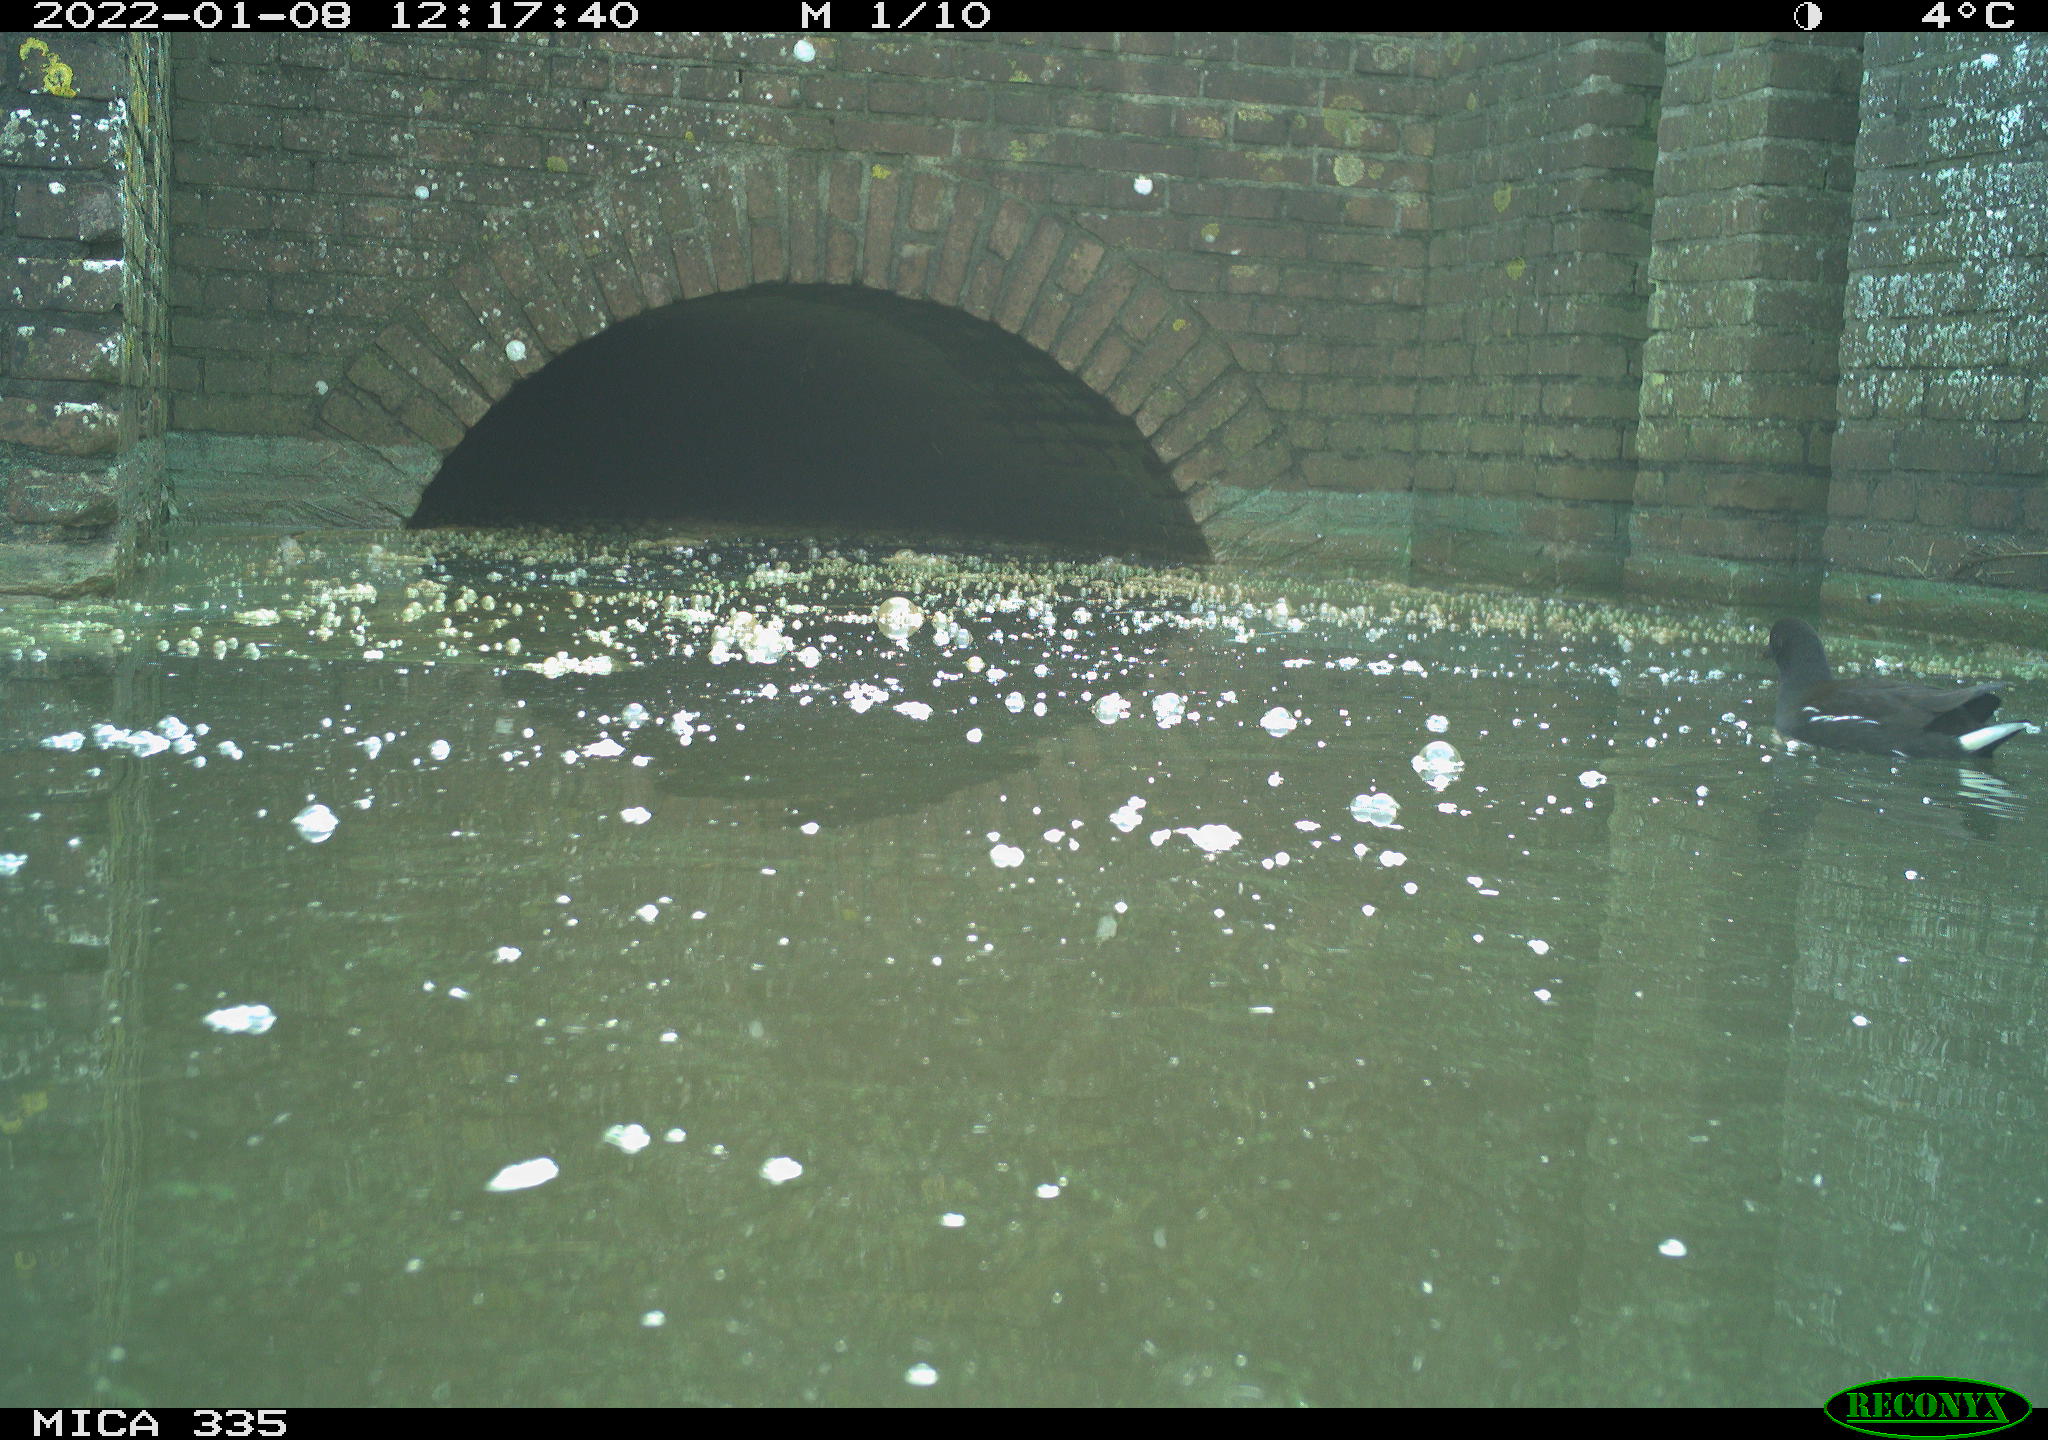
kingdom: Animalia
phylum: Chordata
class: Aves
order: Gruiformes
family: Rallidae
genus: Gallinula
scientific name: Gallinula chloropus
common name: Common moorhen
